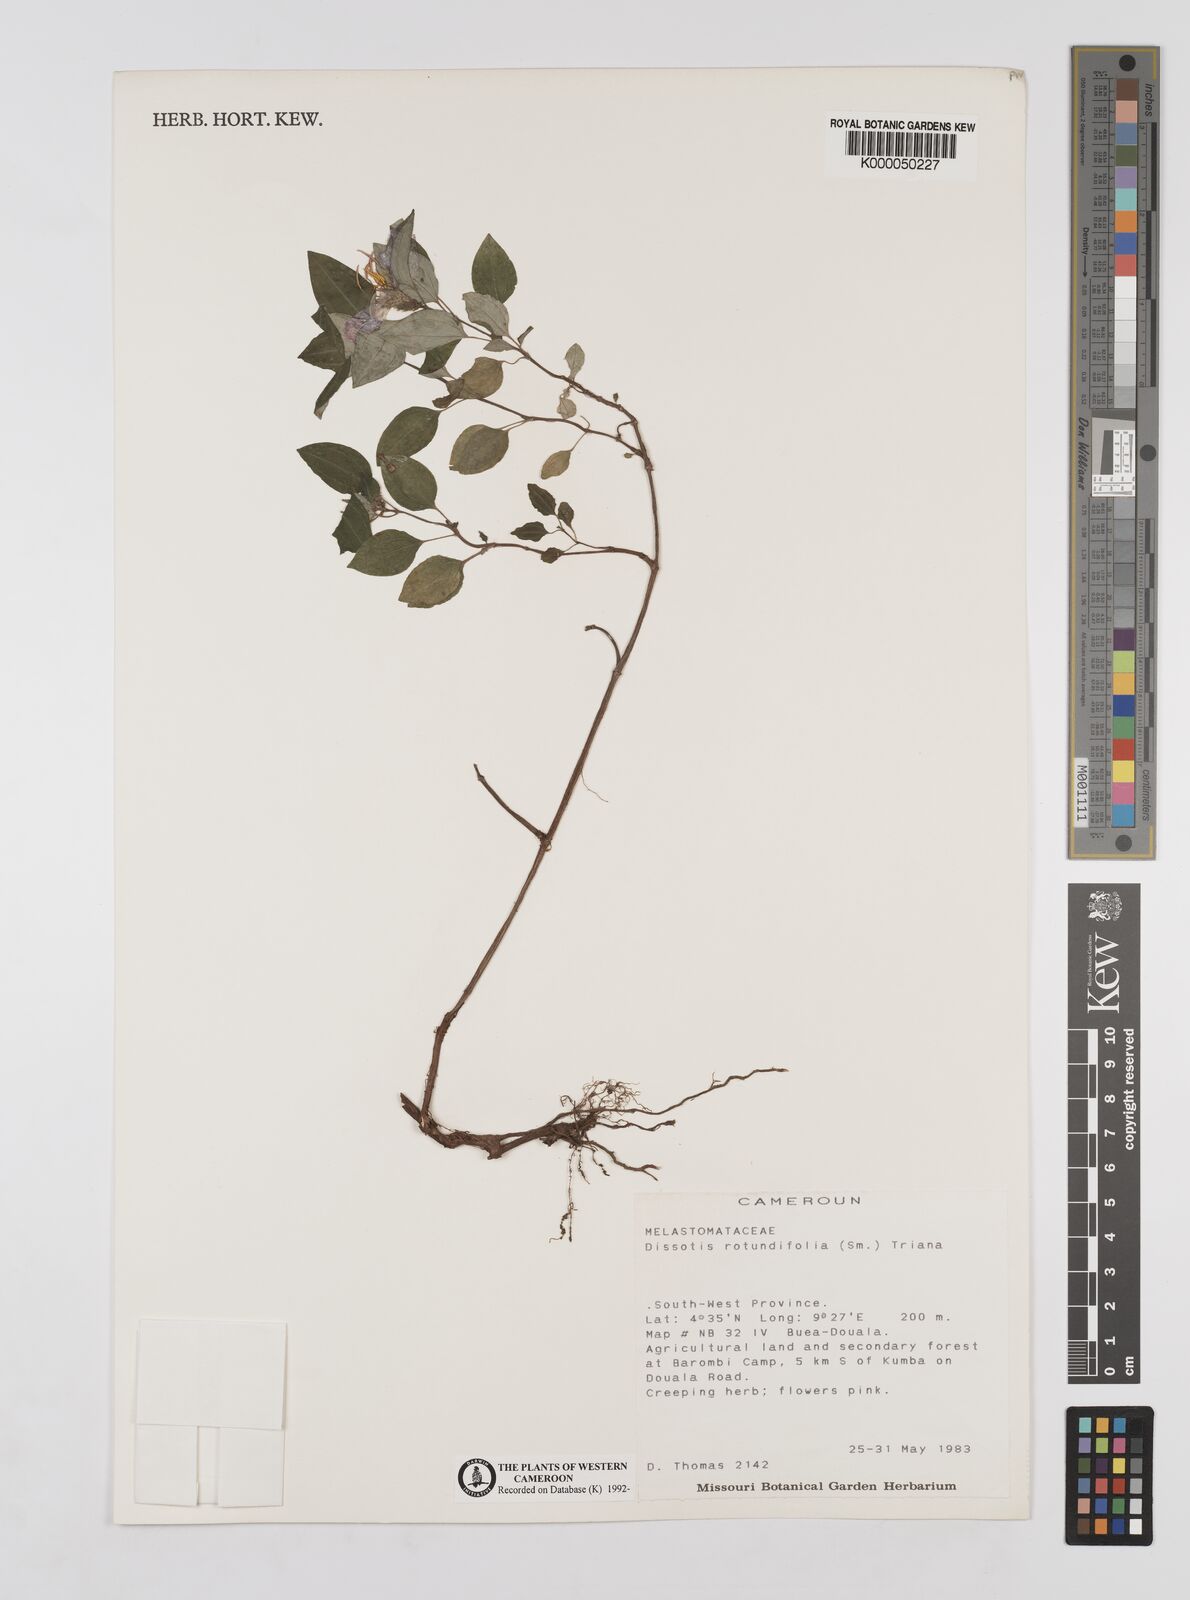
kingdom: Plantae
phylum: Tracheophyta
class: Magnoliopsida
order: Myrtales
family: Melastomataceae
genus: Heterotis
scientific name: Heterotis rotundifolia
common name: Pinklady
